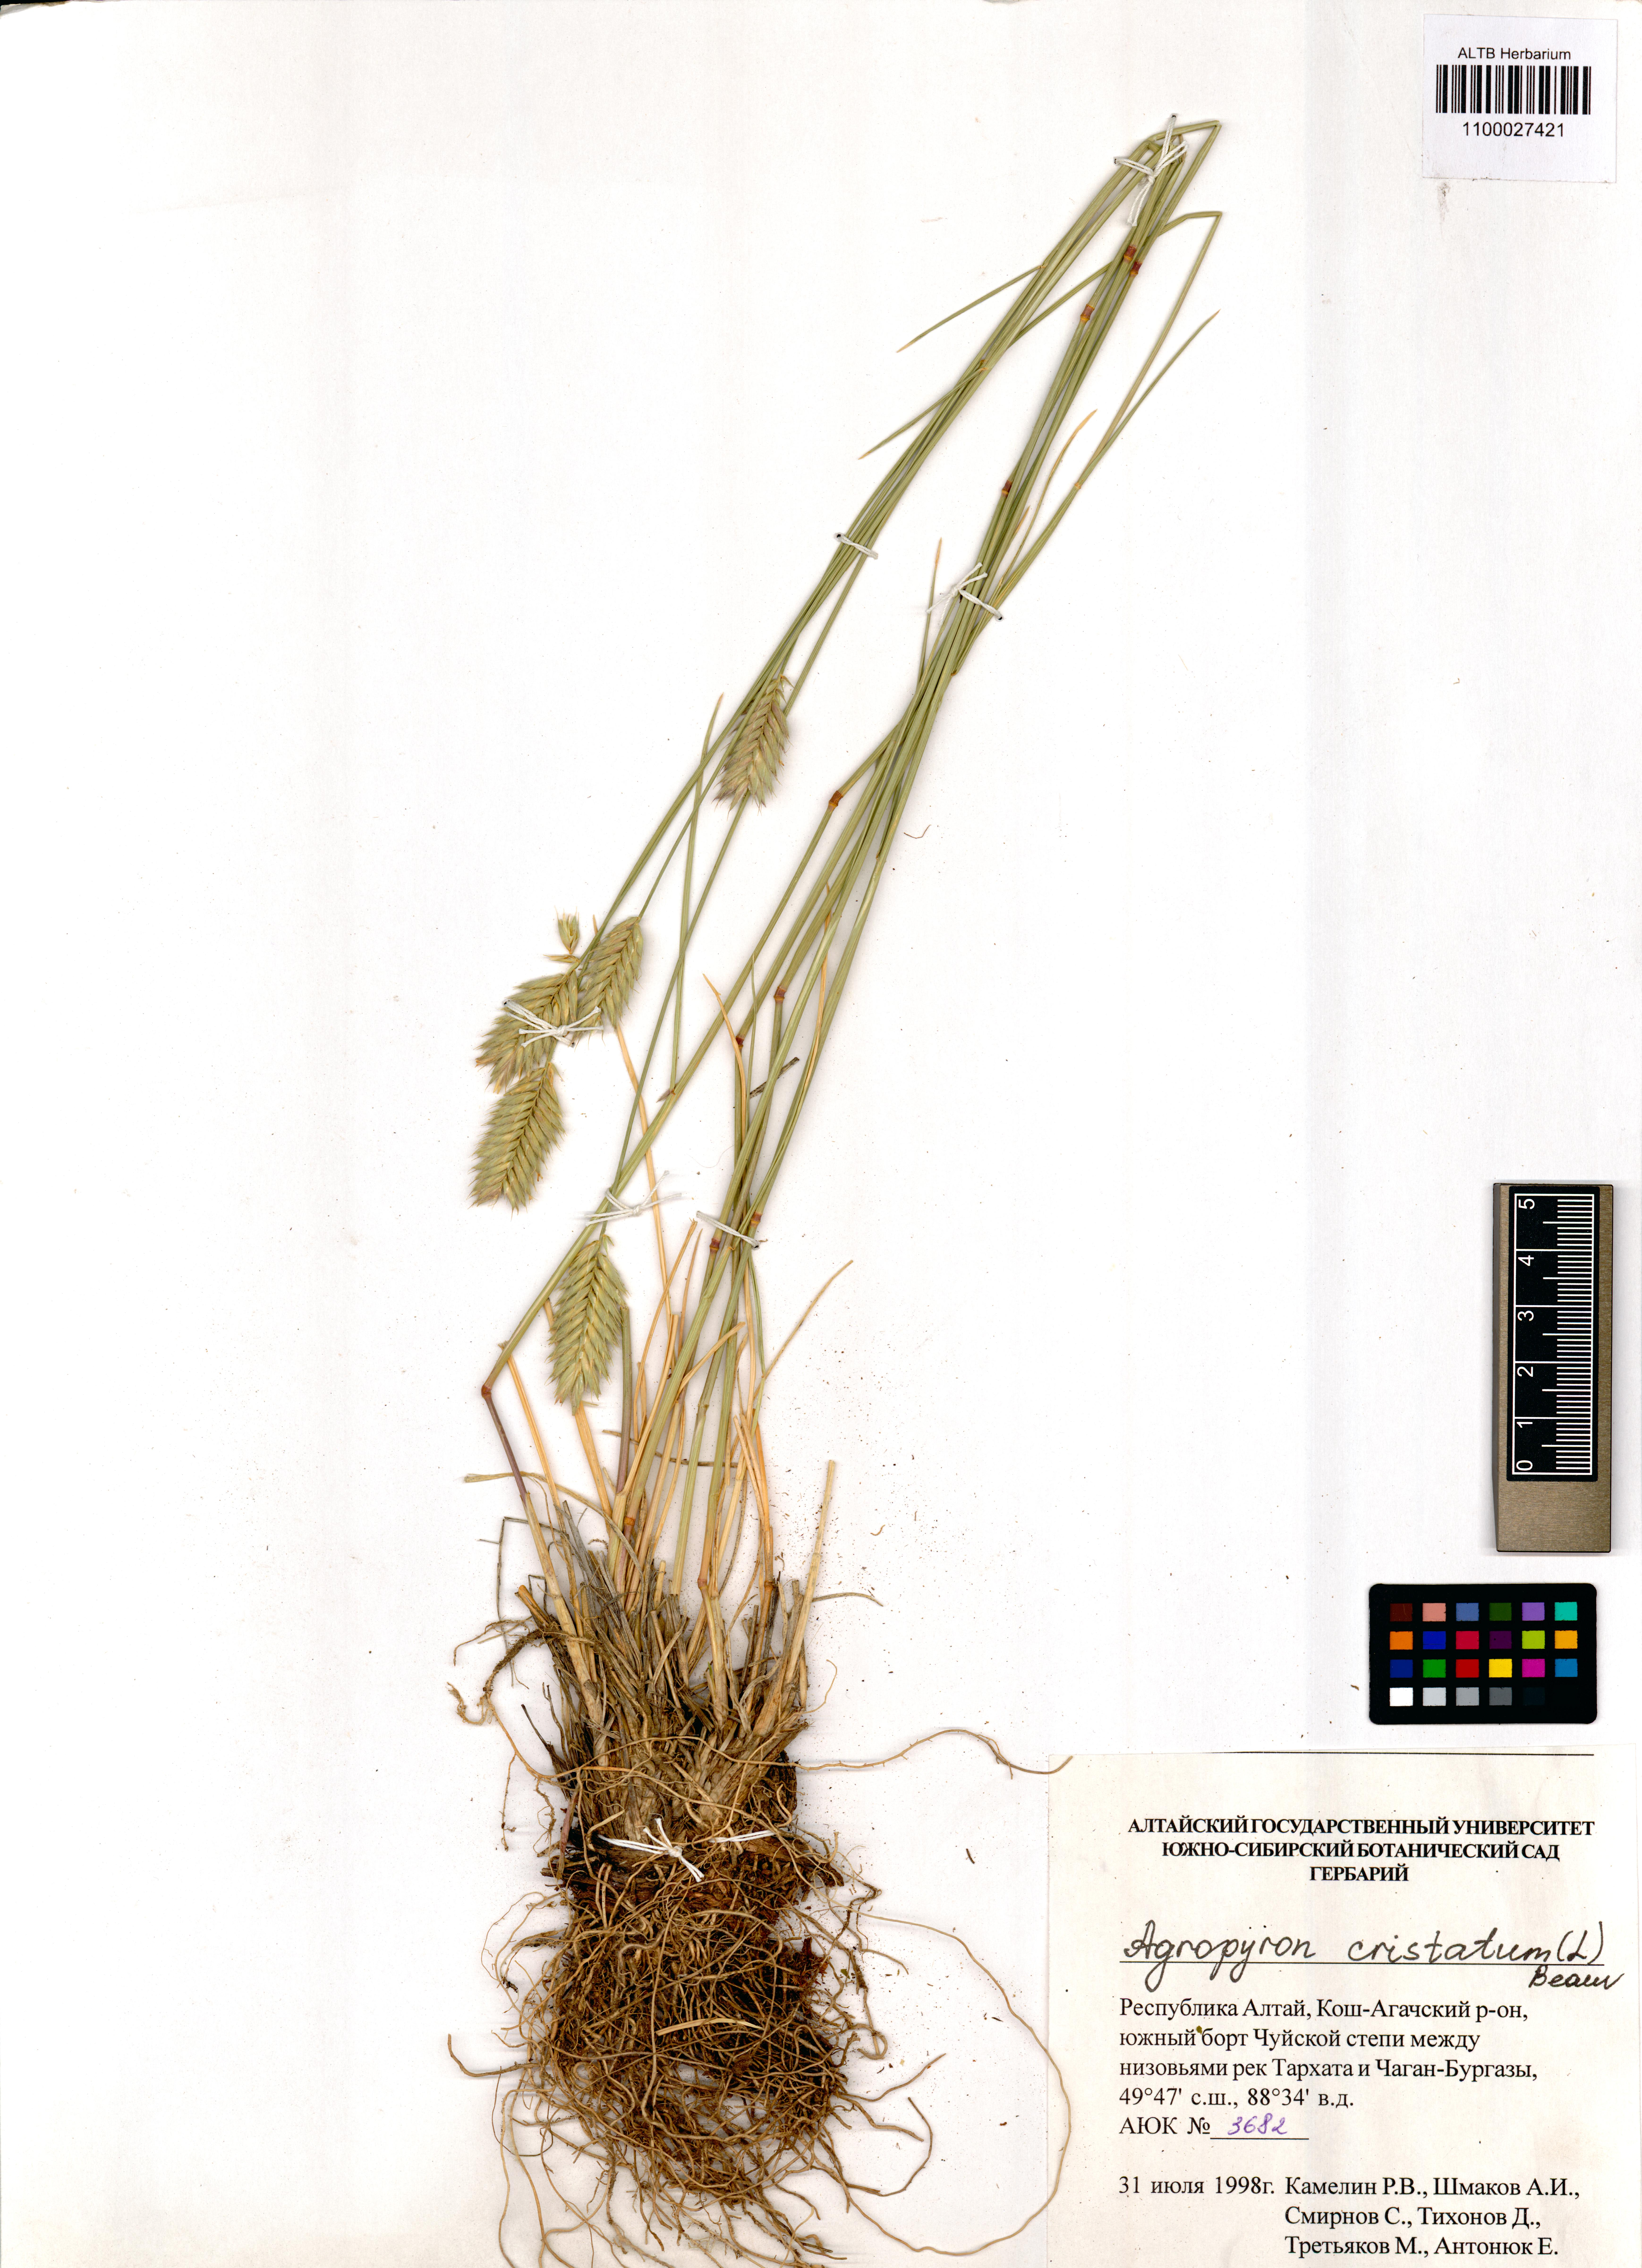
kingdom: Plantae
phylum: Tracheophyta
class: Liliopsida
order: Poales
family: Poaceae
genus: Agropyron
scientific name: Agropyron cristatum
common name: Crested wheatgrass
